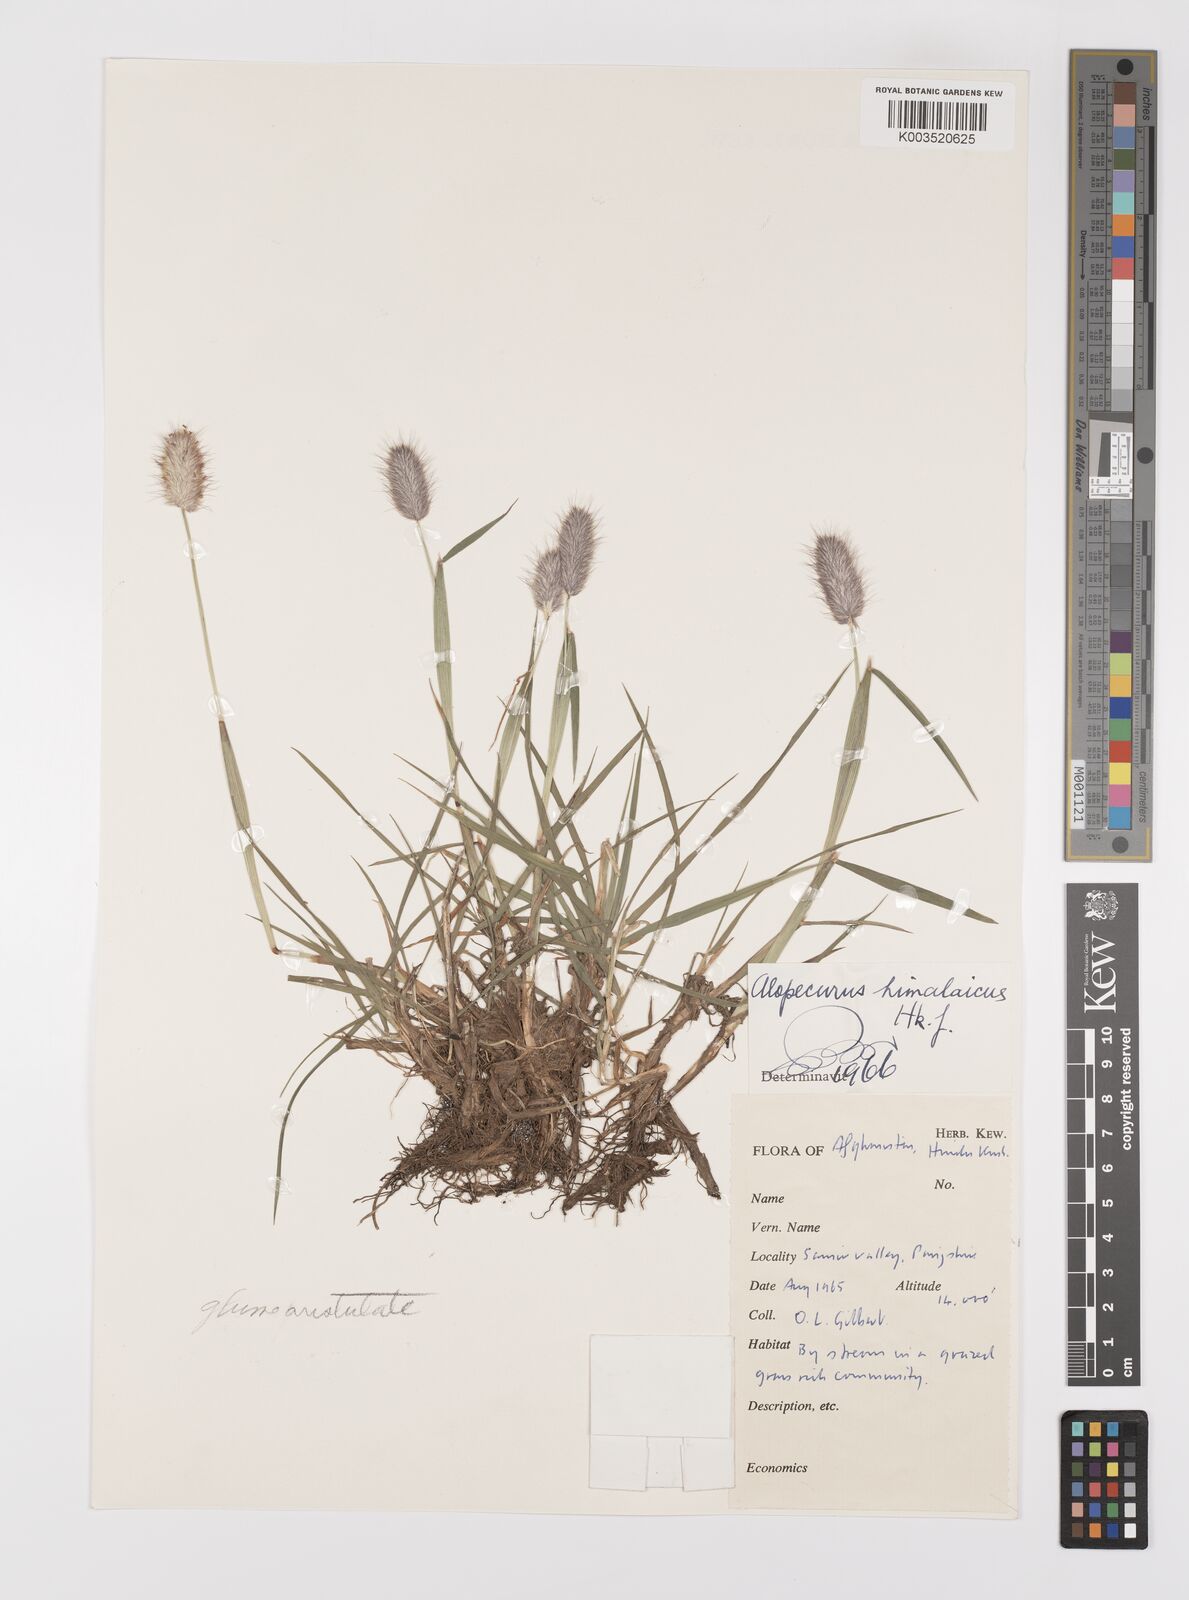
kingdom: Plantae
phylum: Tracheophyta
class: Liliopsida
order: Poales
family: Poaceae
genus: Alopecurus
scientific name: Alopecurus himalaicus
